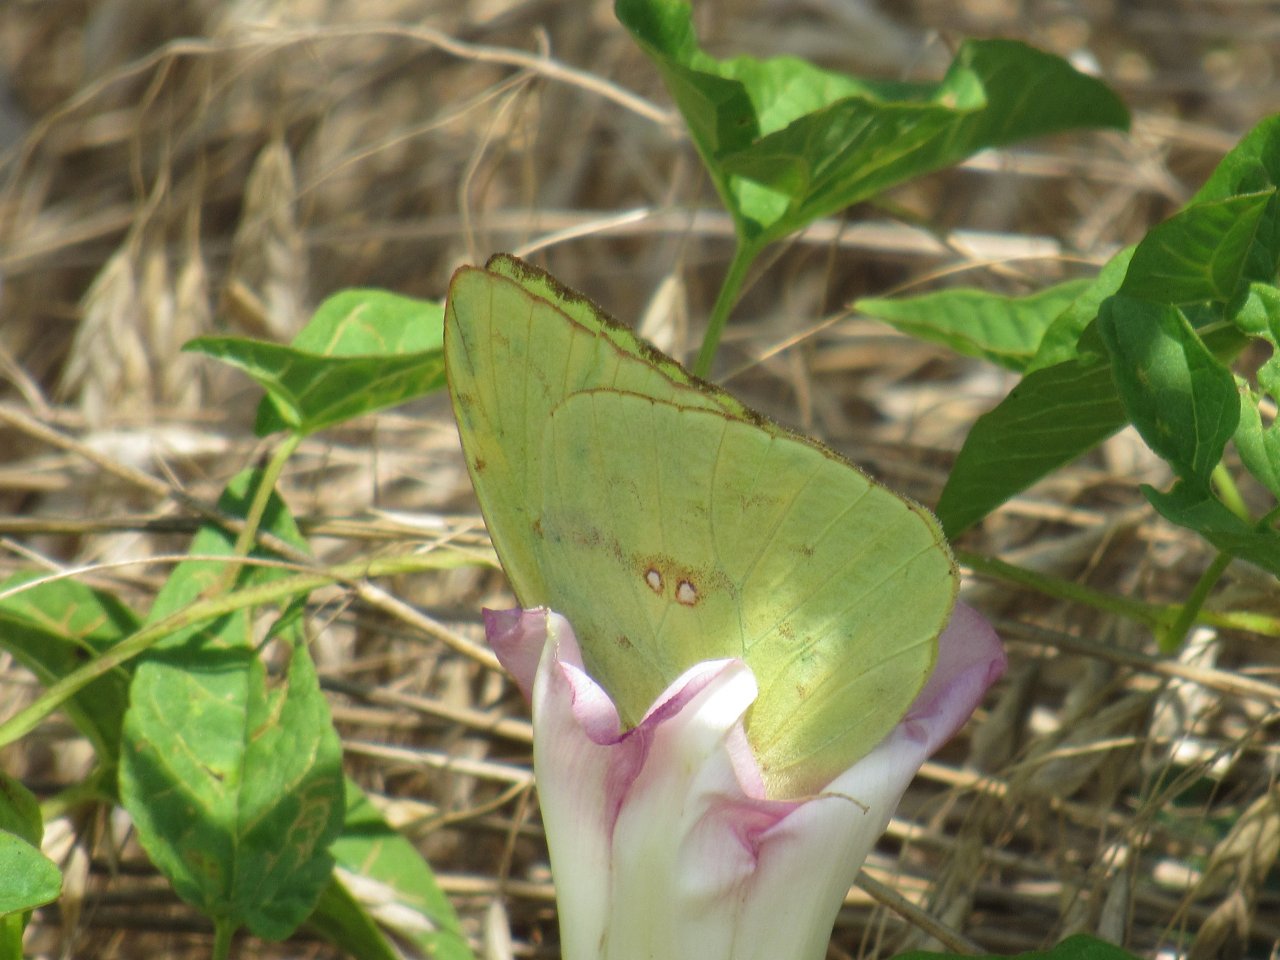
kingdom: Animalia
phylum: Arthropoda
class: Insecta
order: Lepidoptera
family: Pieridae
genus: Phoebis
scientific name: Phoebis sennae
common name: Cloudless Sulphur
